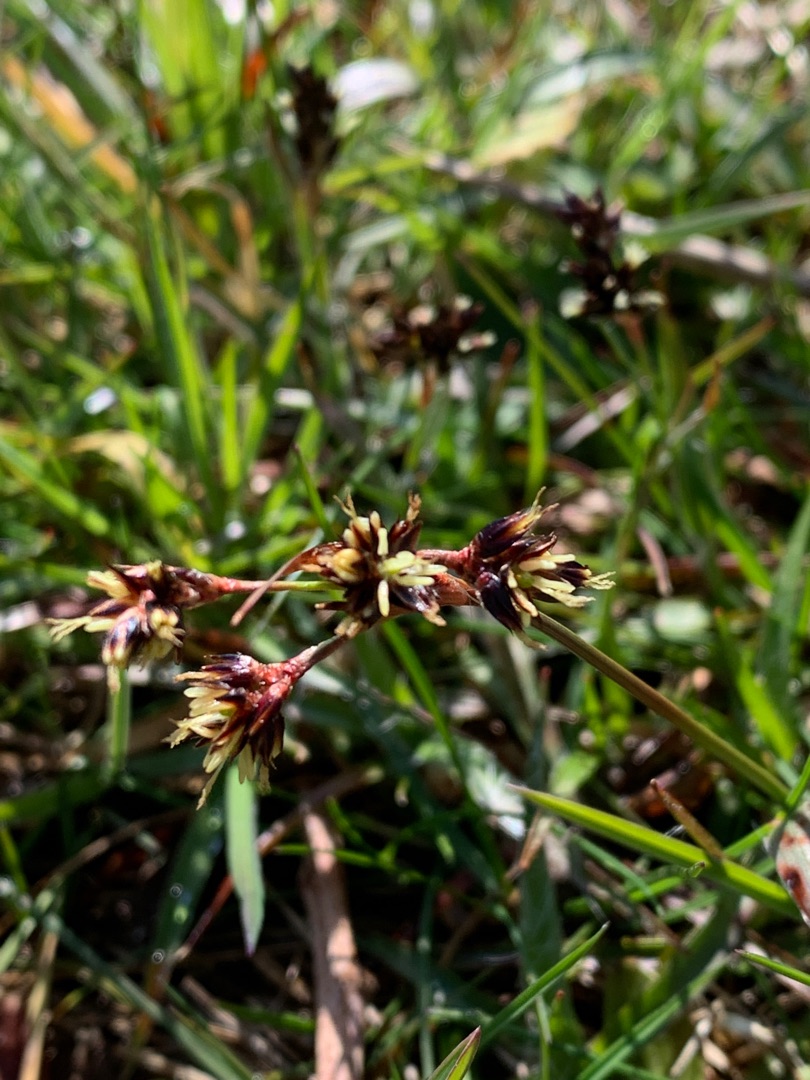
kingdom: Plantae
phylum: Tracheophyta
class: Liliopsida
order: Poales
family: Juncaceae
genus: Luzula
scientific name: Luzula campestris
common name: Mark-frytle
